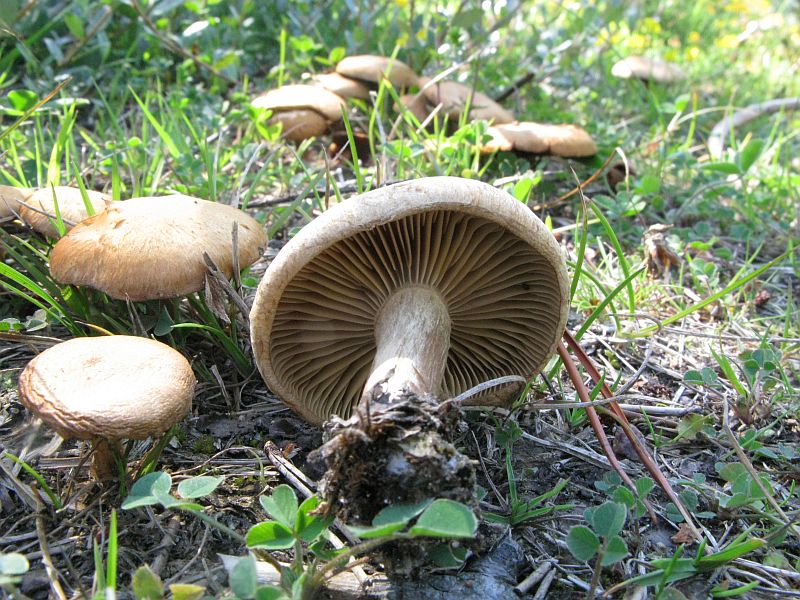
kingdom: Fungi
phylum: Basidiomycota
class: Agaricomycetes
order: Agaricales
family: Inocybaceae
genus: Mallocybe
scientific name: Mallocybe agardhii
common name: Agardhs trævlhat
